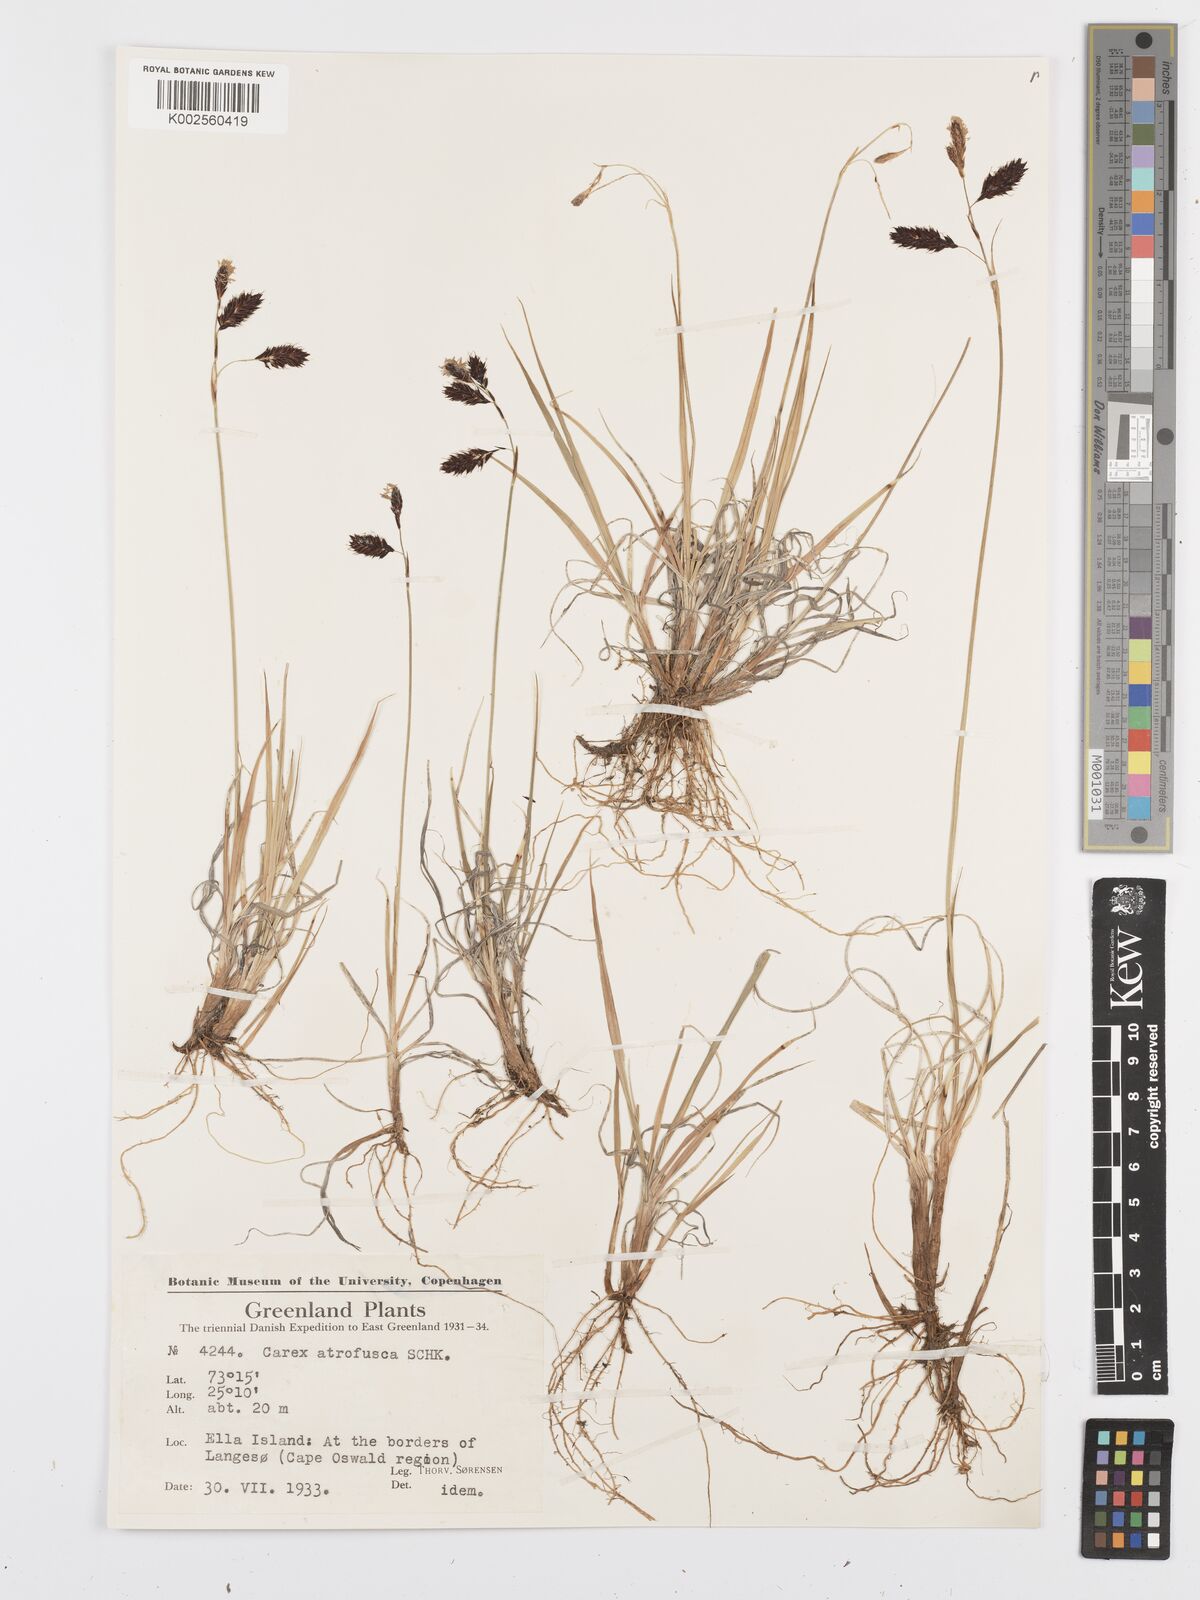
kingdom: Plantae
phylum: Tracheophyta
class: Liliopsida
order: Poales
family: Cyperaceae
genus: Carex
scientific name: Carex atrofusca
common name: Scorched alpine-sedge
